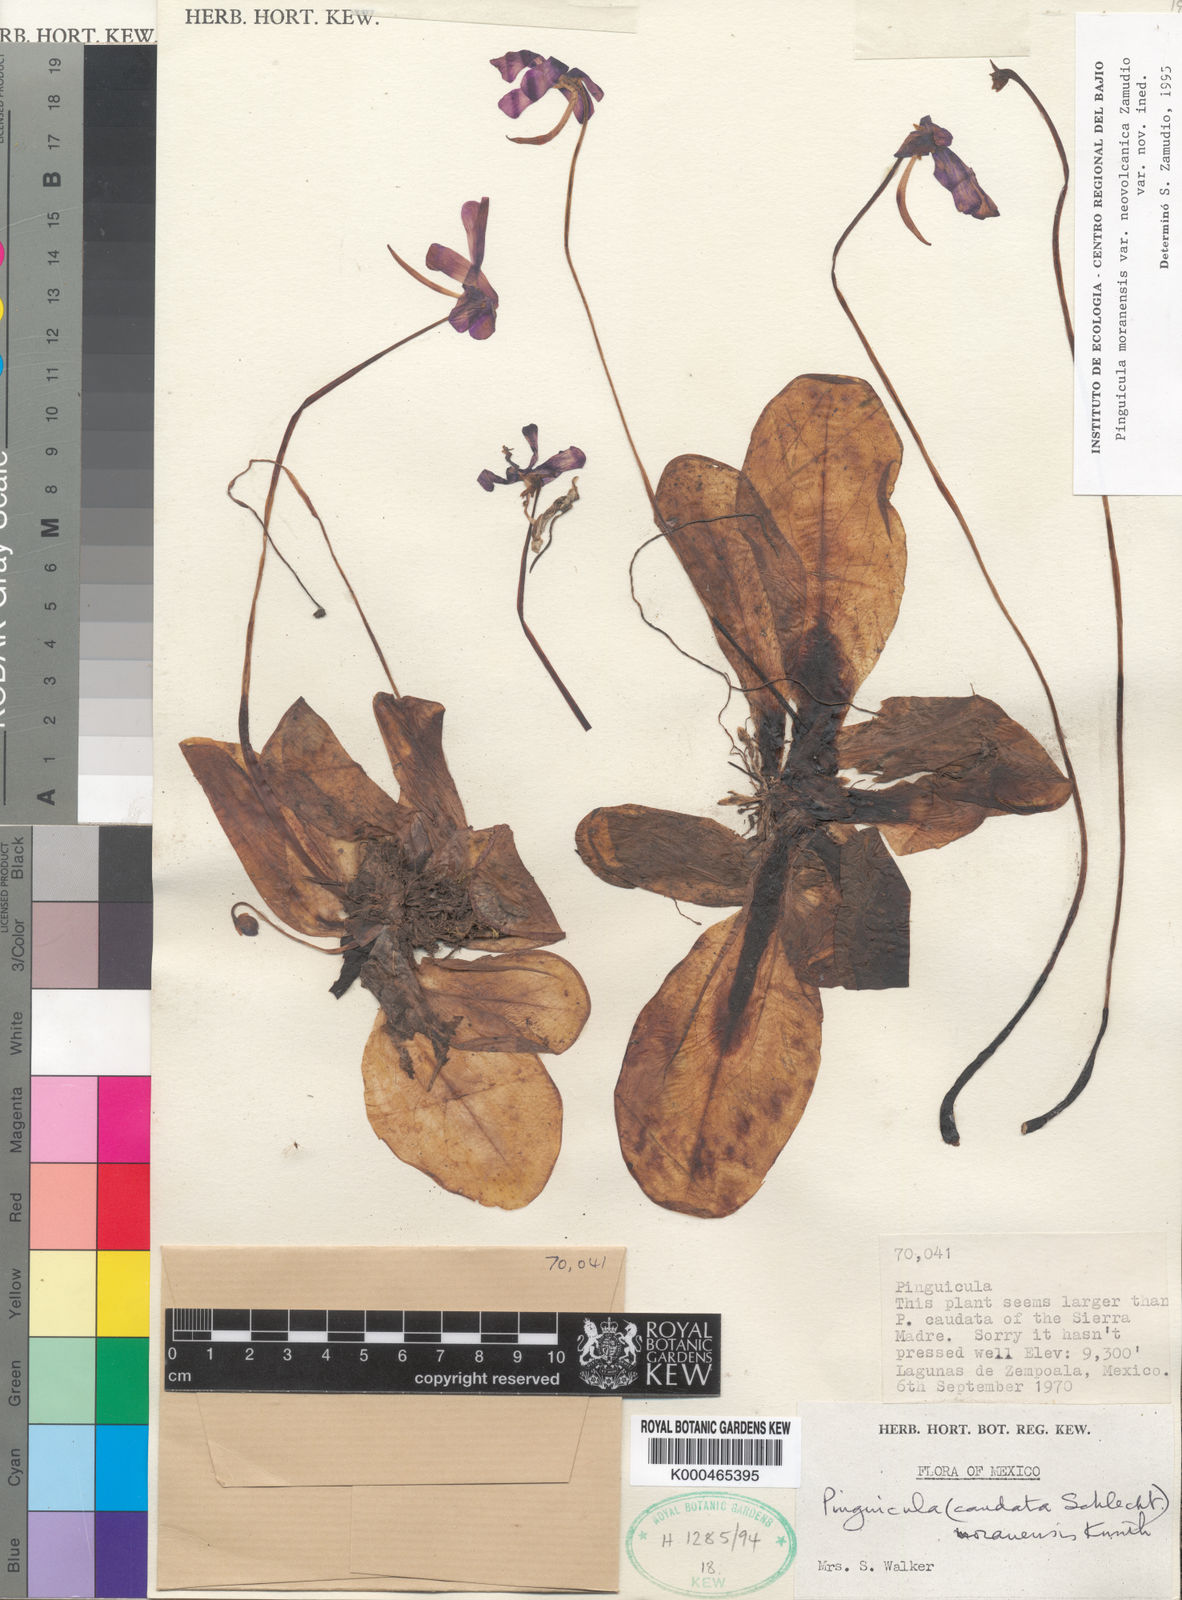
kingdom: Plantae
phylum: Tracheophyta
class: Magnoliopsida
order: Lamiales
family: Lentibulariaceae
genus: Pinguicula
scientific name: Pinguicula moranensis
